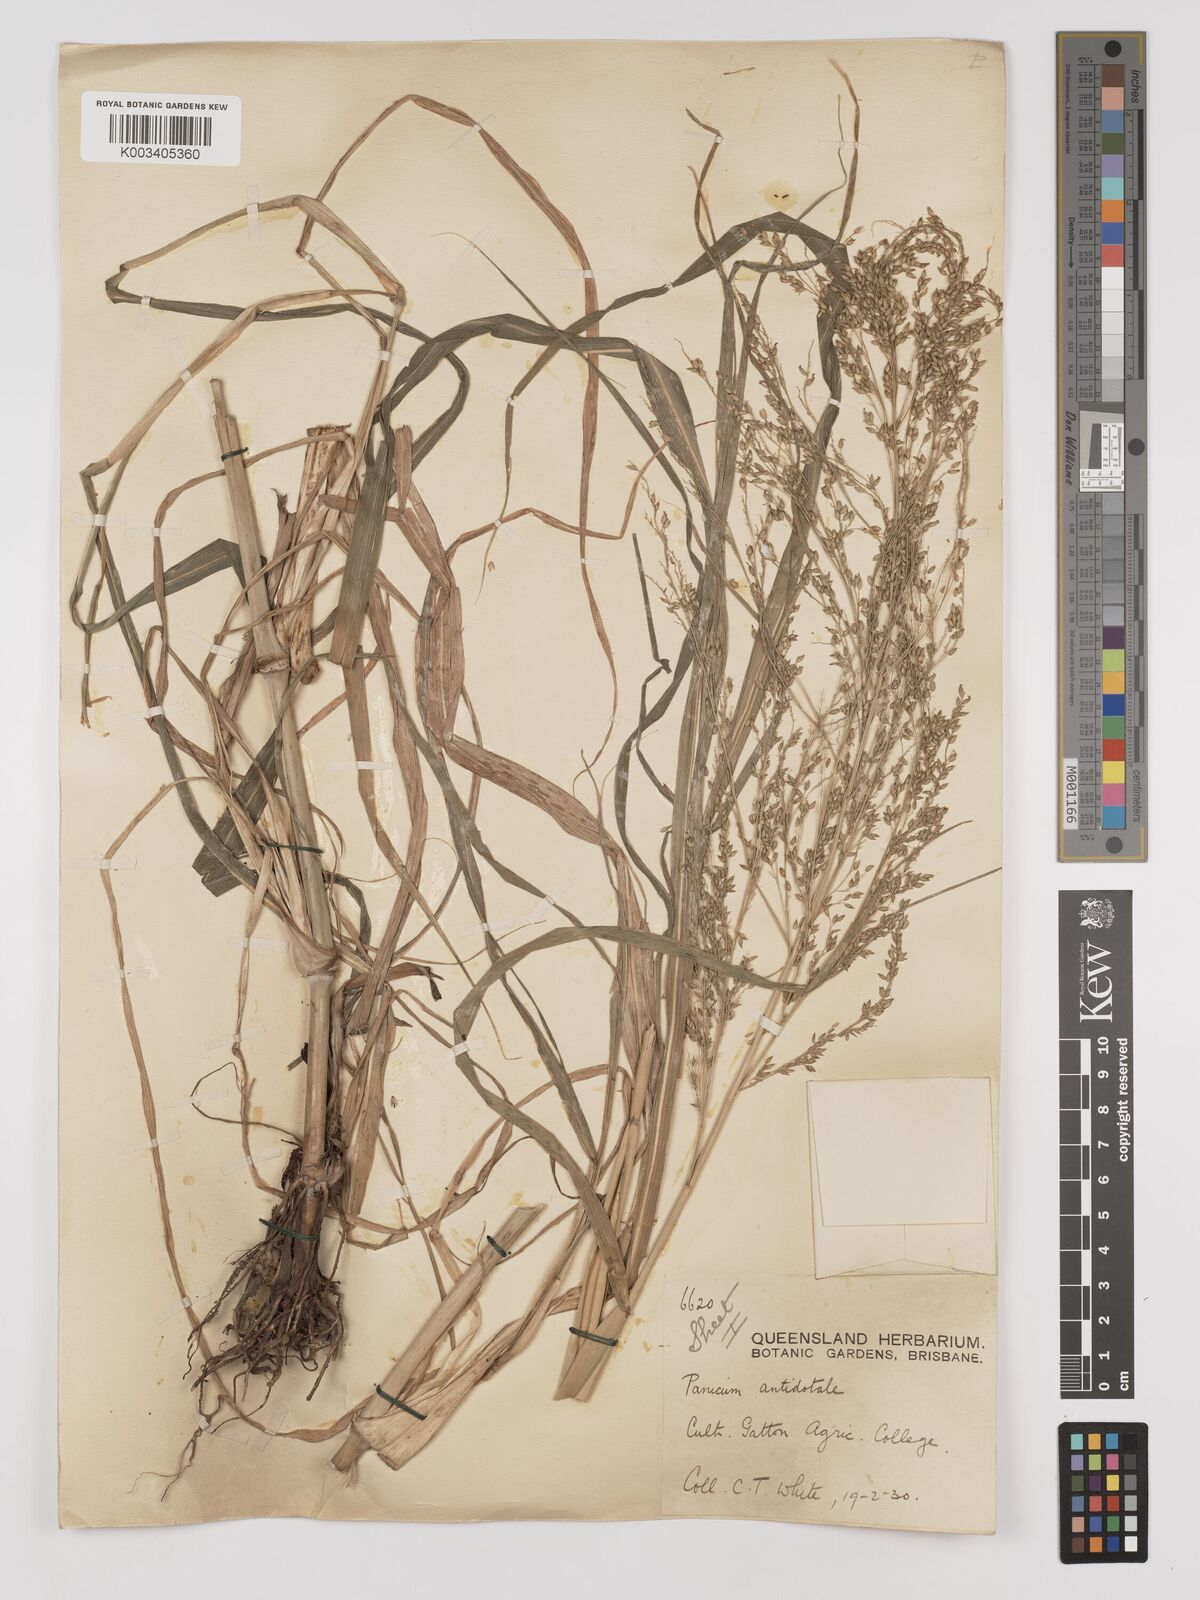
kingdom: Plantae
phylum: Tracheophyta
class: Liliopsida
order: Poales
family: Poaceae
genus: Panicum
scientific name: Panicum antidotale
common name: Blue panicum
